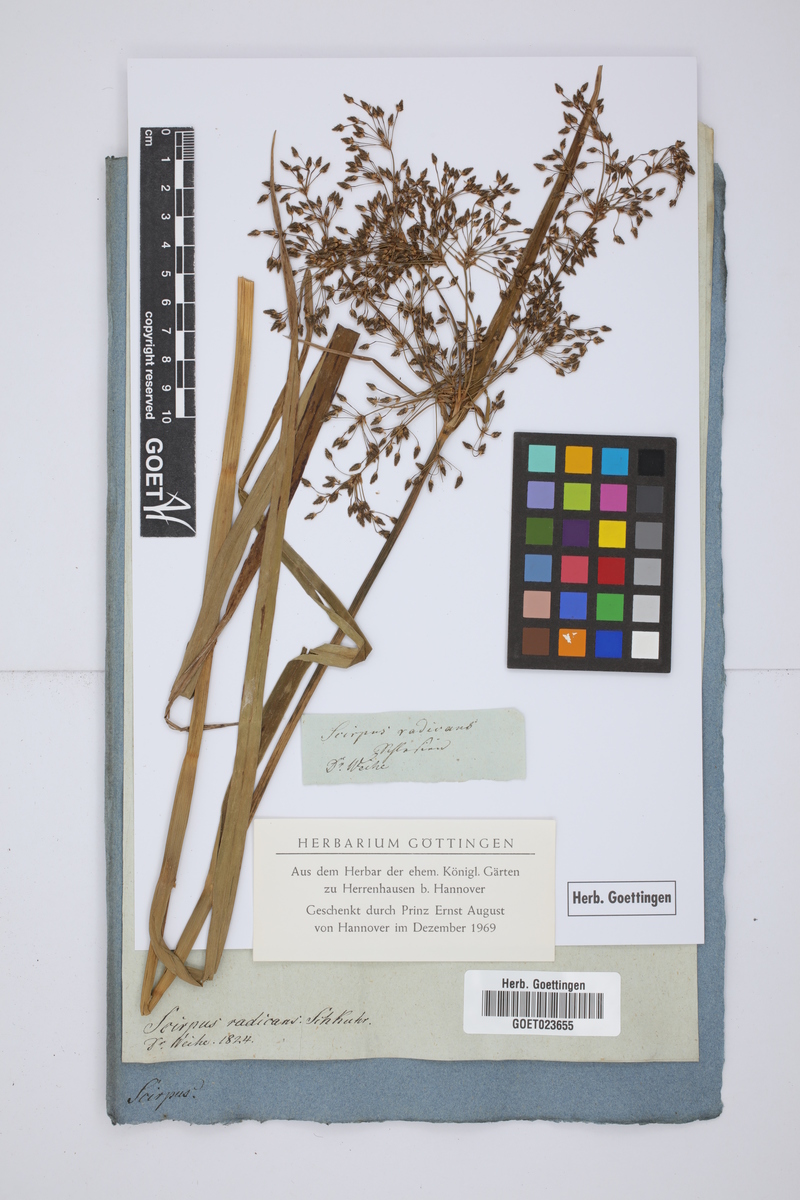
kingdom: Plantae
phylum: Tracheophyta
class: Liliopsida
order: Poales
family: Cyperaceae
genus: Scirpus
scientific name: Scirpus radicans
